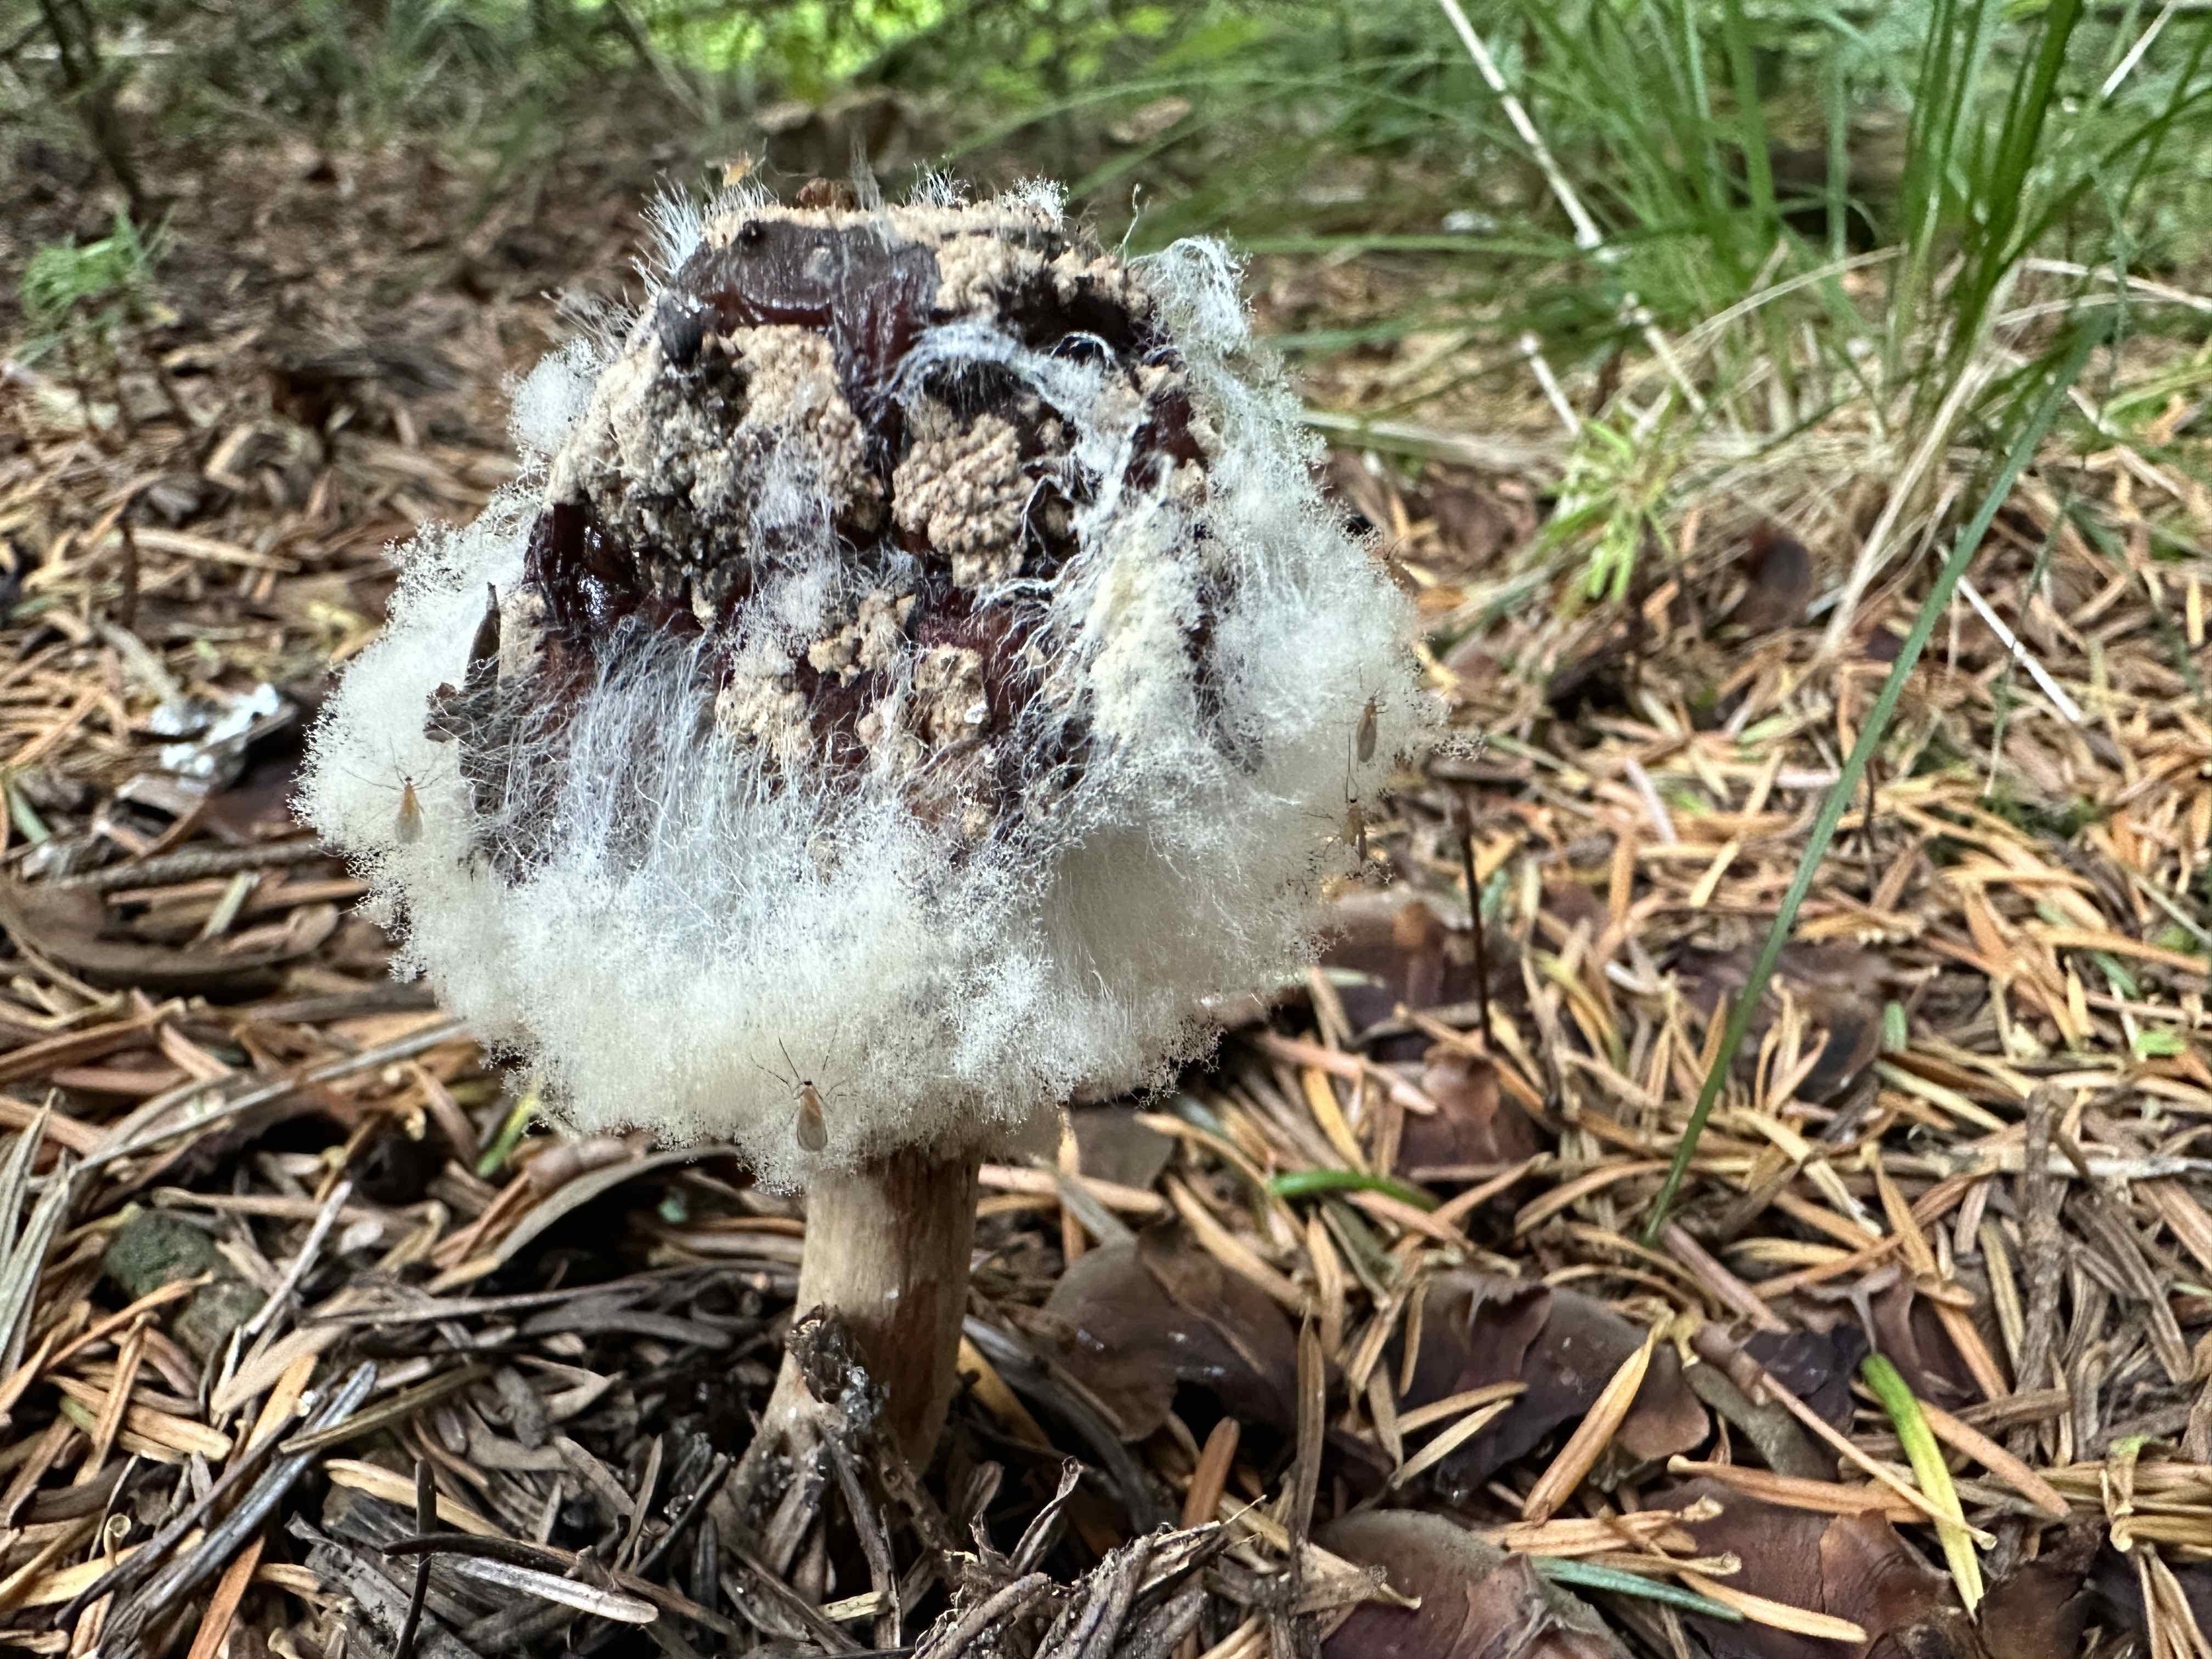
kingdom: Fungi
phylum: Mucoromycota
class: Mucoromycetes
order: Mucorales
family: Rhizopodaceae
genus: Syzygites
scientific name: Syzygites megalocarpus
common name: nissenål
